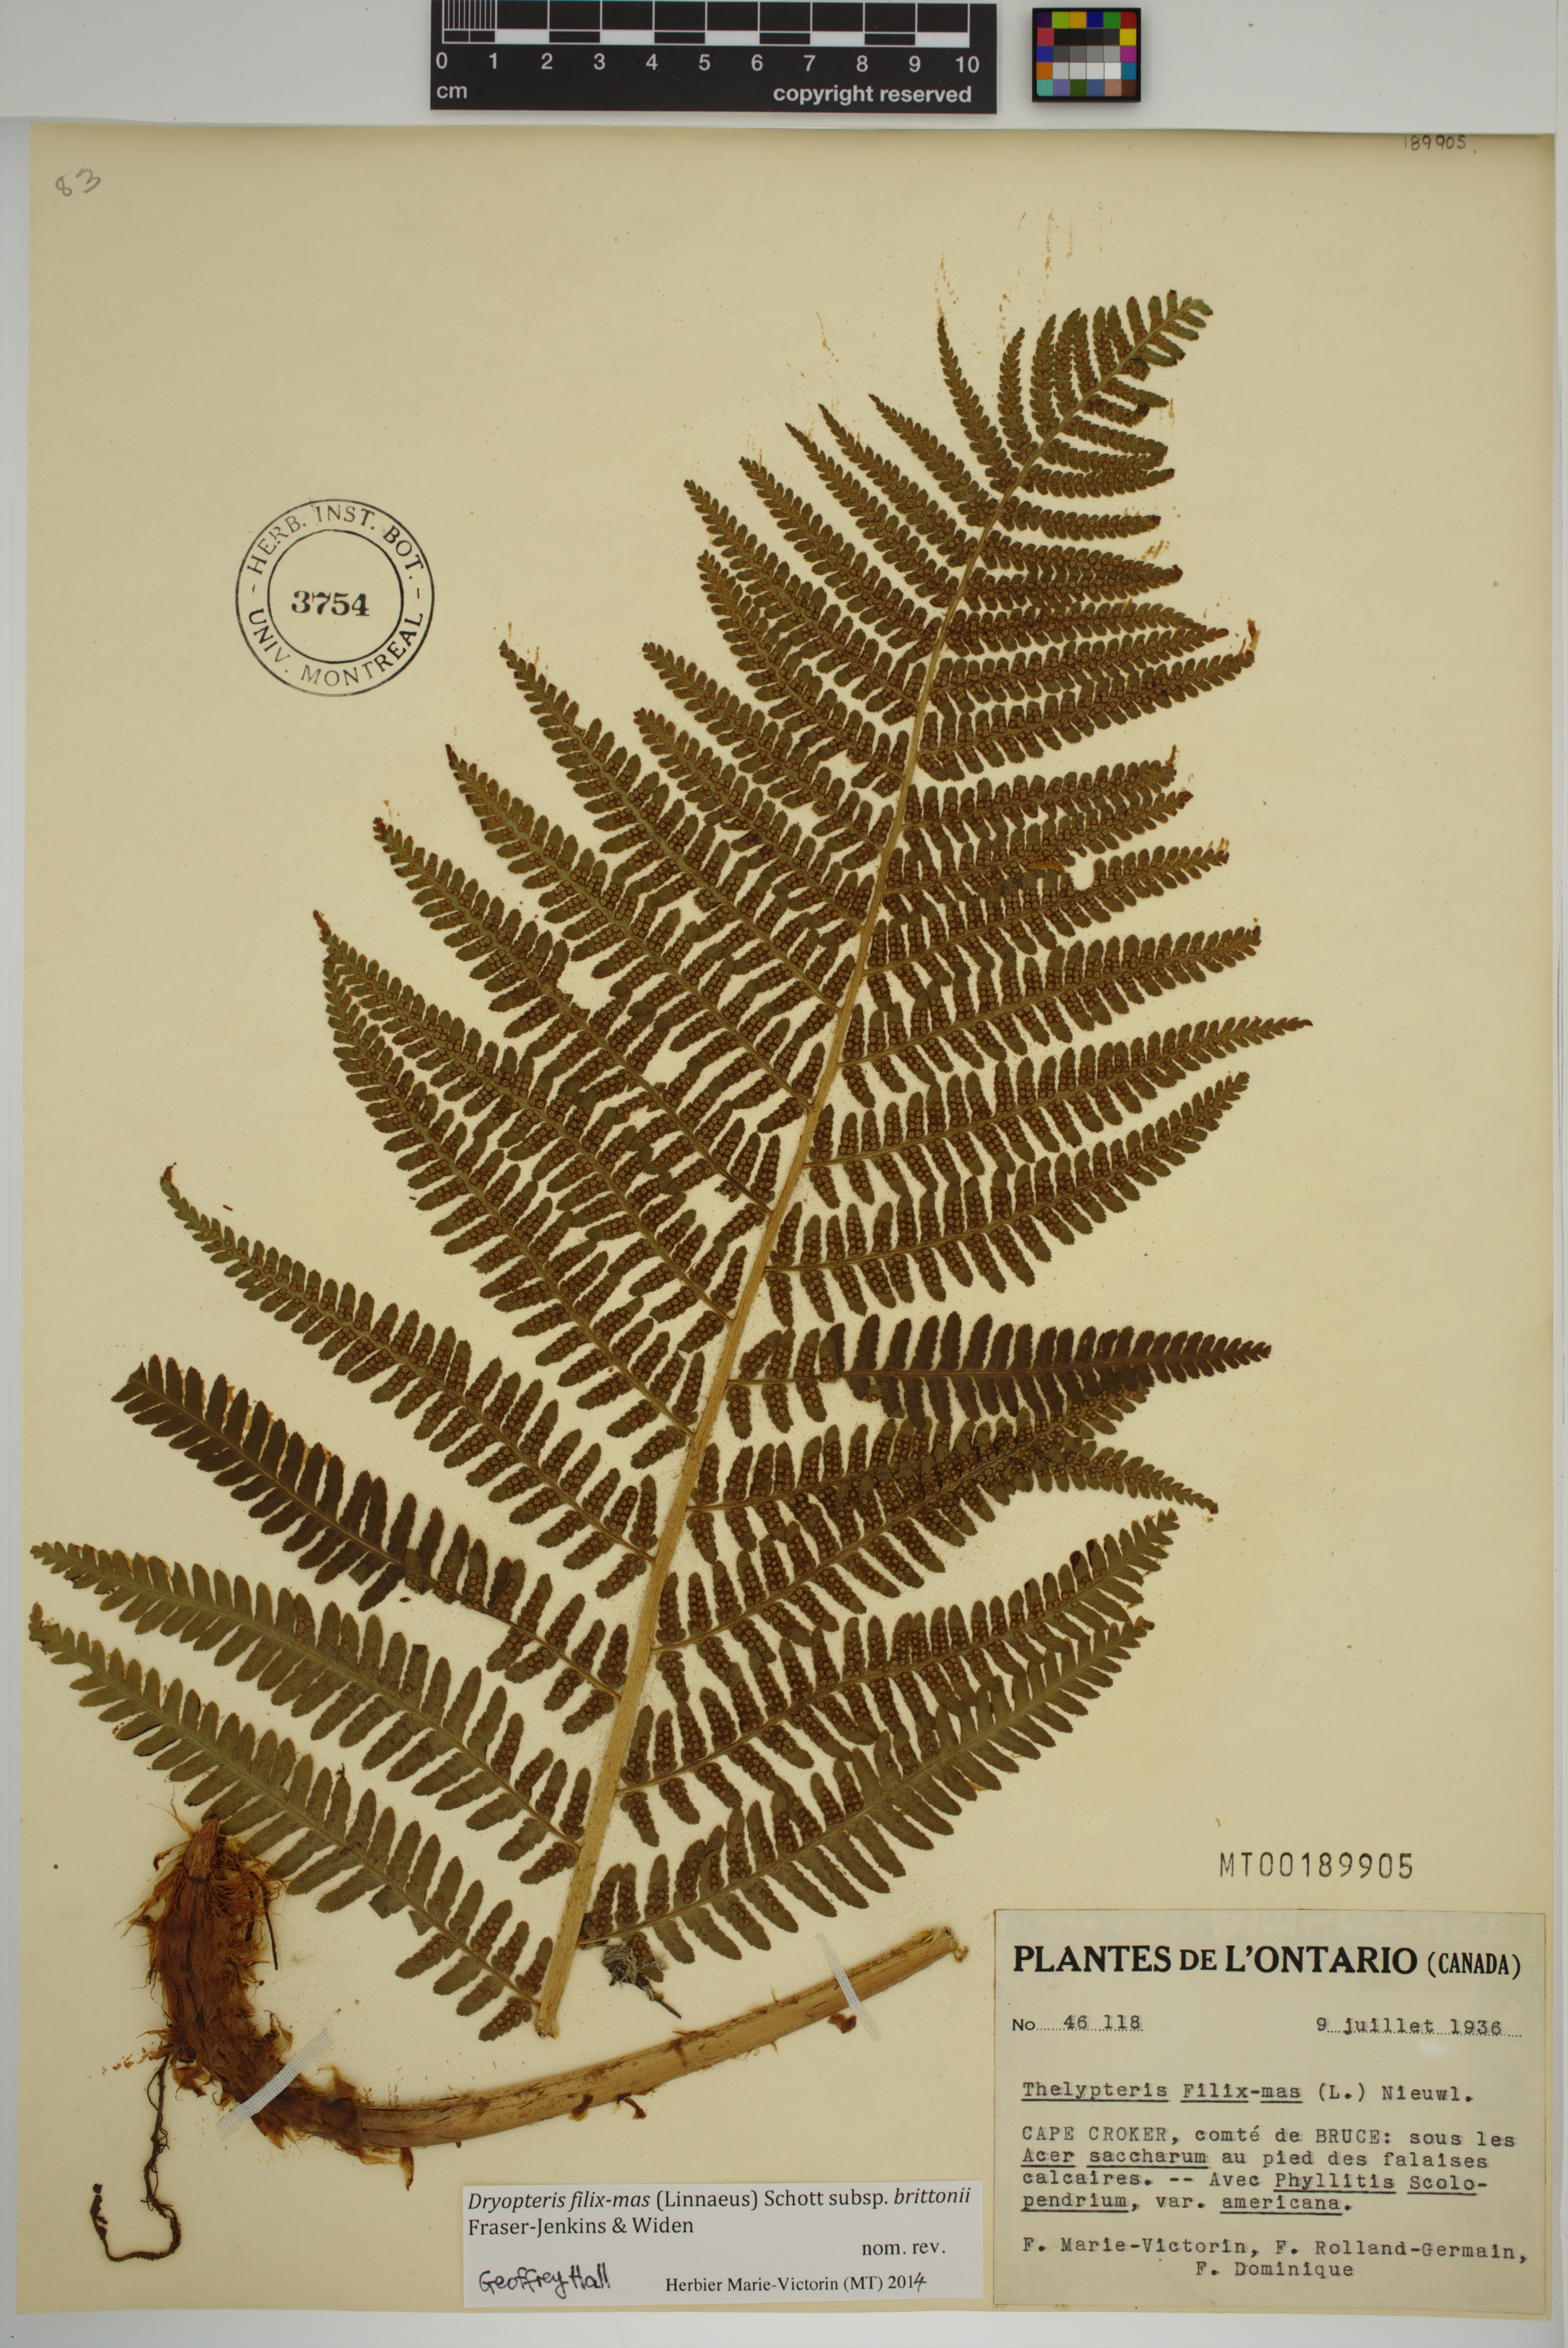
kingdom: Plantae
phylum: Tracheophyta
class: Polypodiopsida
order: Polypodiales
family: Dryopteridaceae
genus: Dryopteris
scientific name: Dryopteris filix-mas
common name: Male fern
